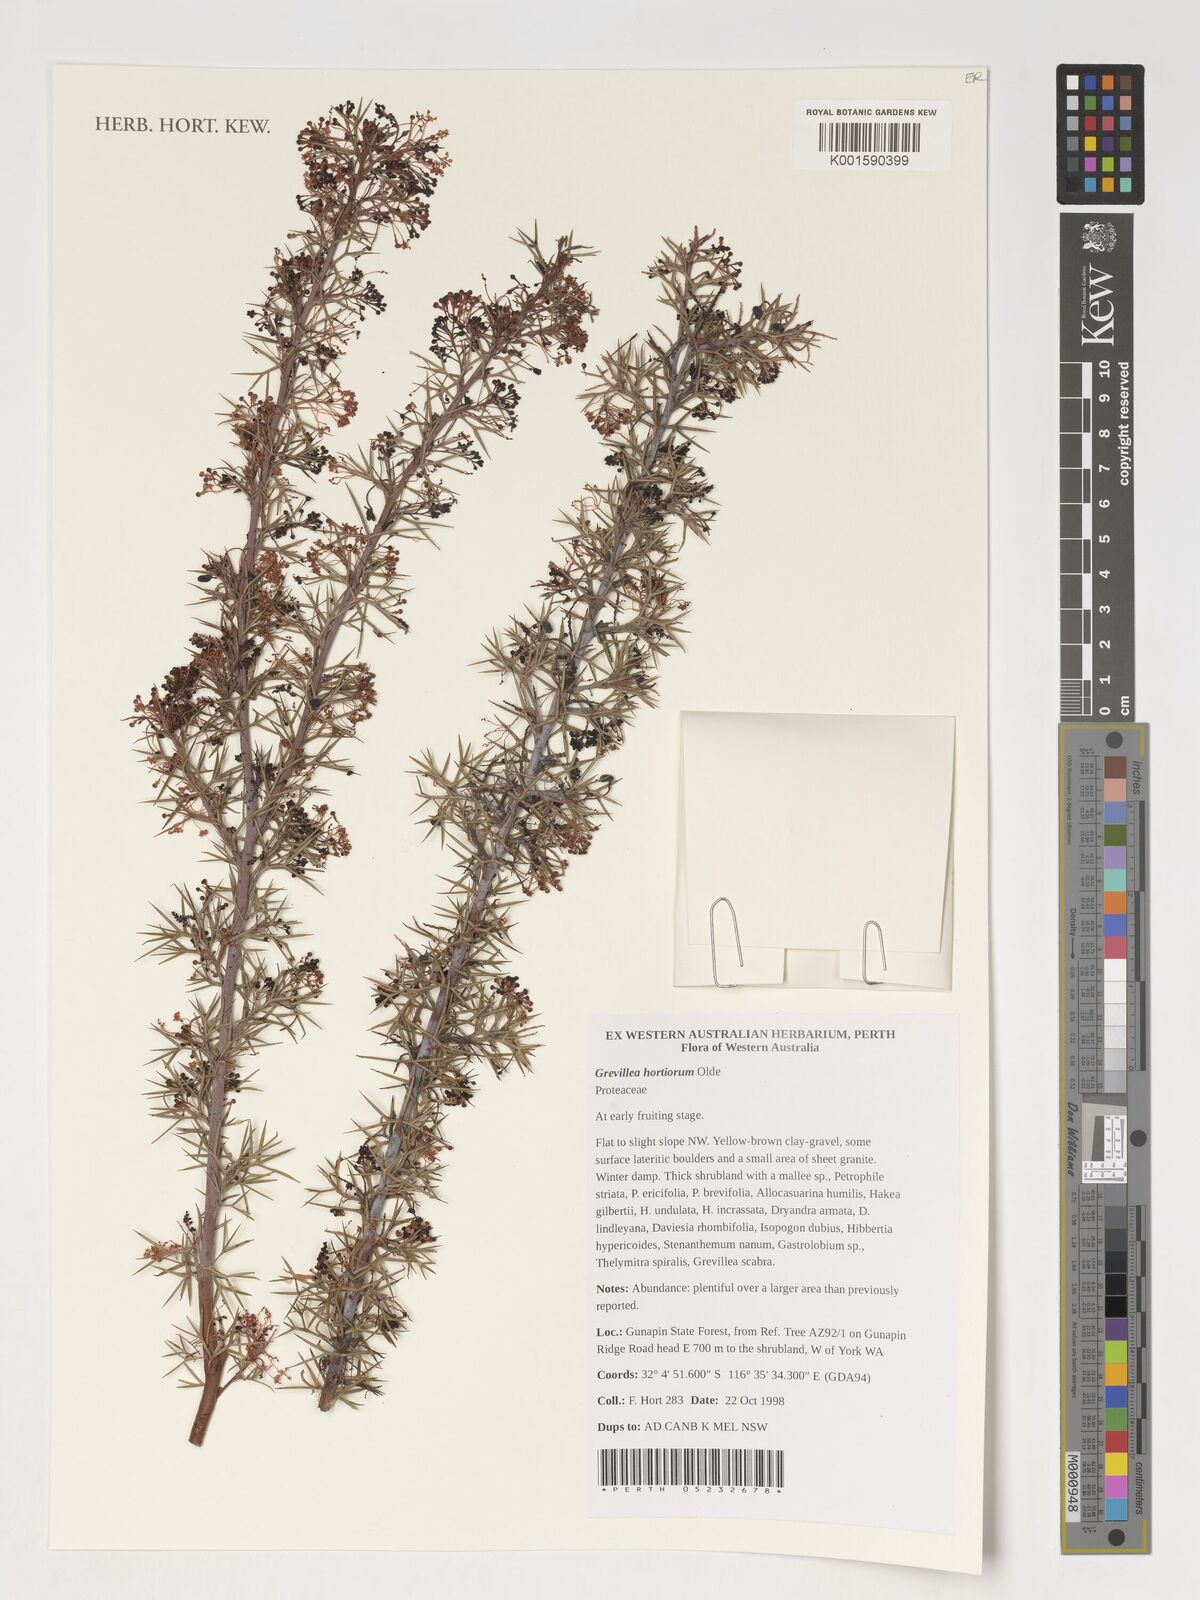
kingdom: Plantae
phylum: Tracheophyta
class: Magnoliopsida
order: Proteales
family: Proteaceae
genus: Grevillea
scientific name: Grevillea
